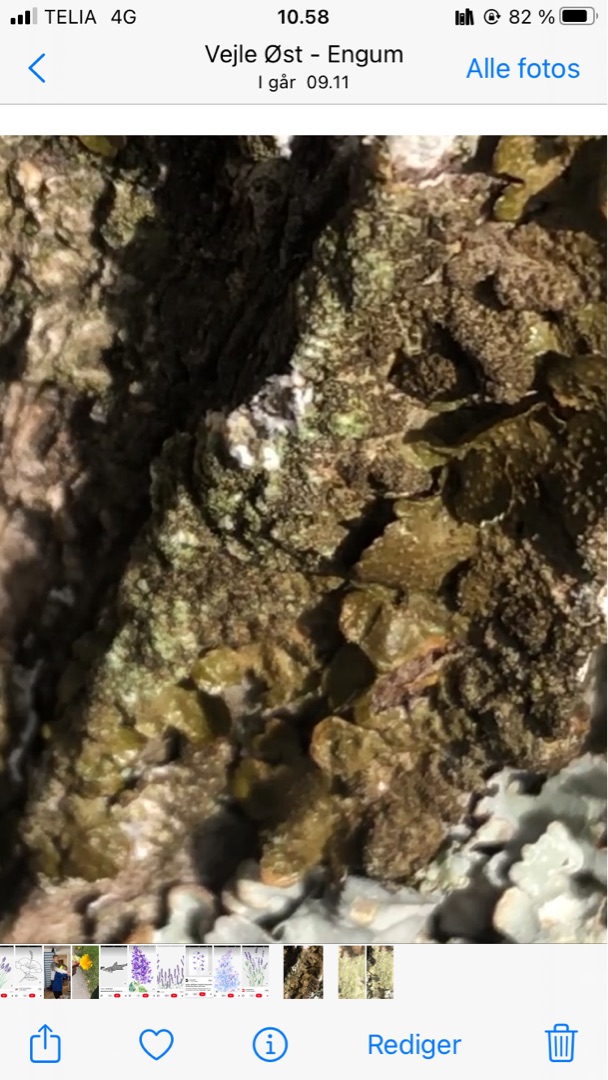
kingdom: Fungi
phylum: Ascomycota
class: Lecanoromycetes
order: Lecanorales
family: Parmeliaceae
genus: Melanelixia
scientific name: Melanelixia glabratula
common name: Glinsende skållav
